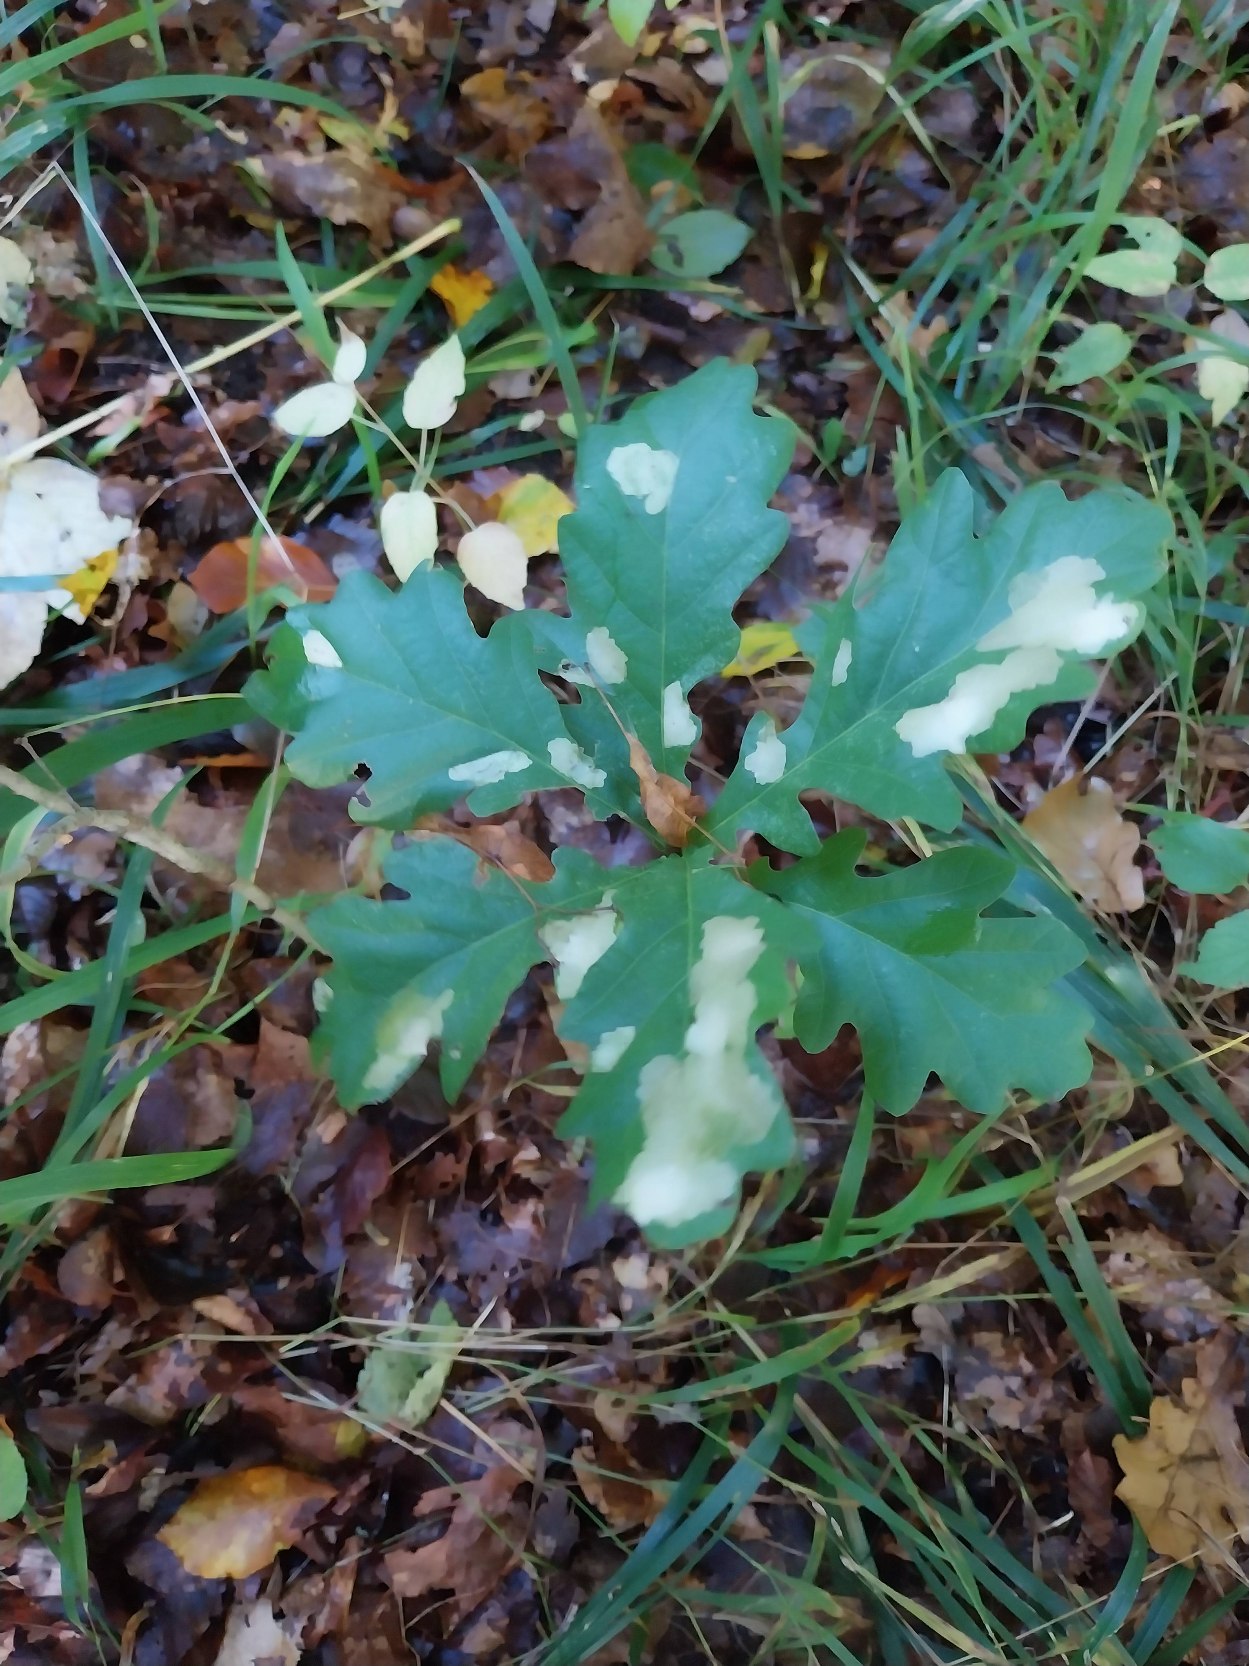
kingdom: Plantae
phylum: Tracheophyta
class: Magnoliopsida
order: Fagales
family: Fagaceae
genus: Quercus
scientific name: Quercus robur
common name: Stilk-eg/almindelig eg
